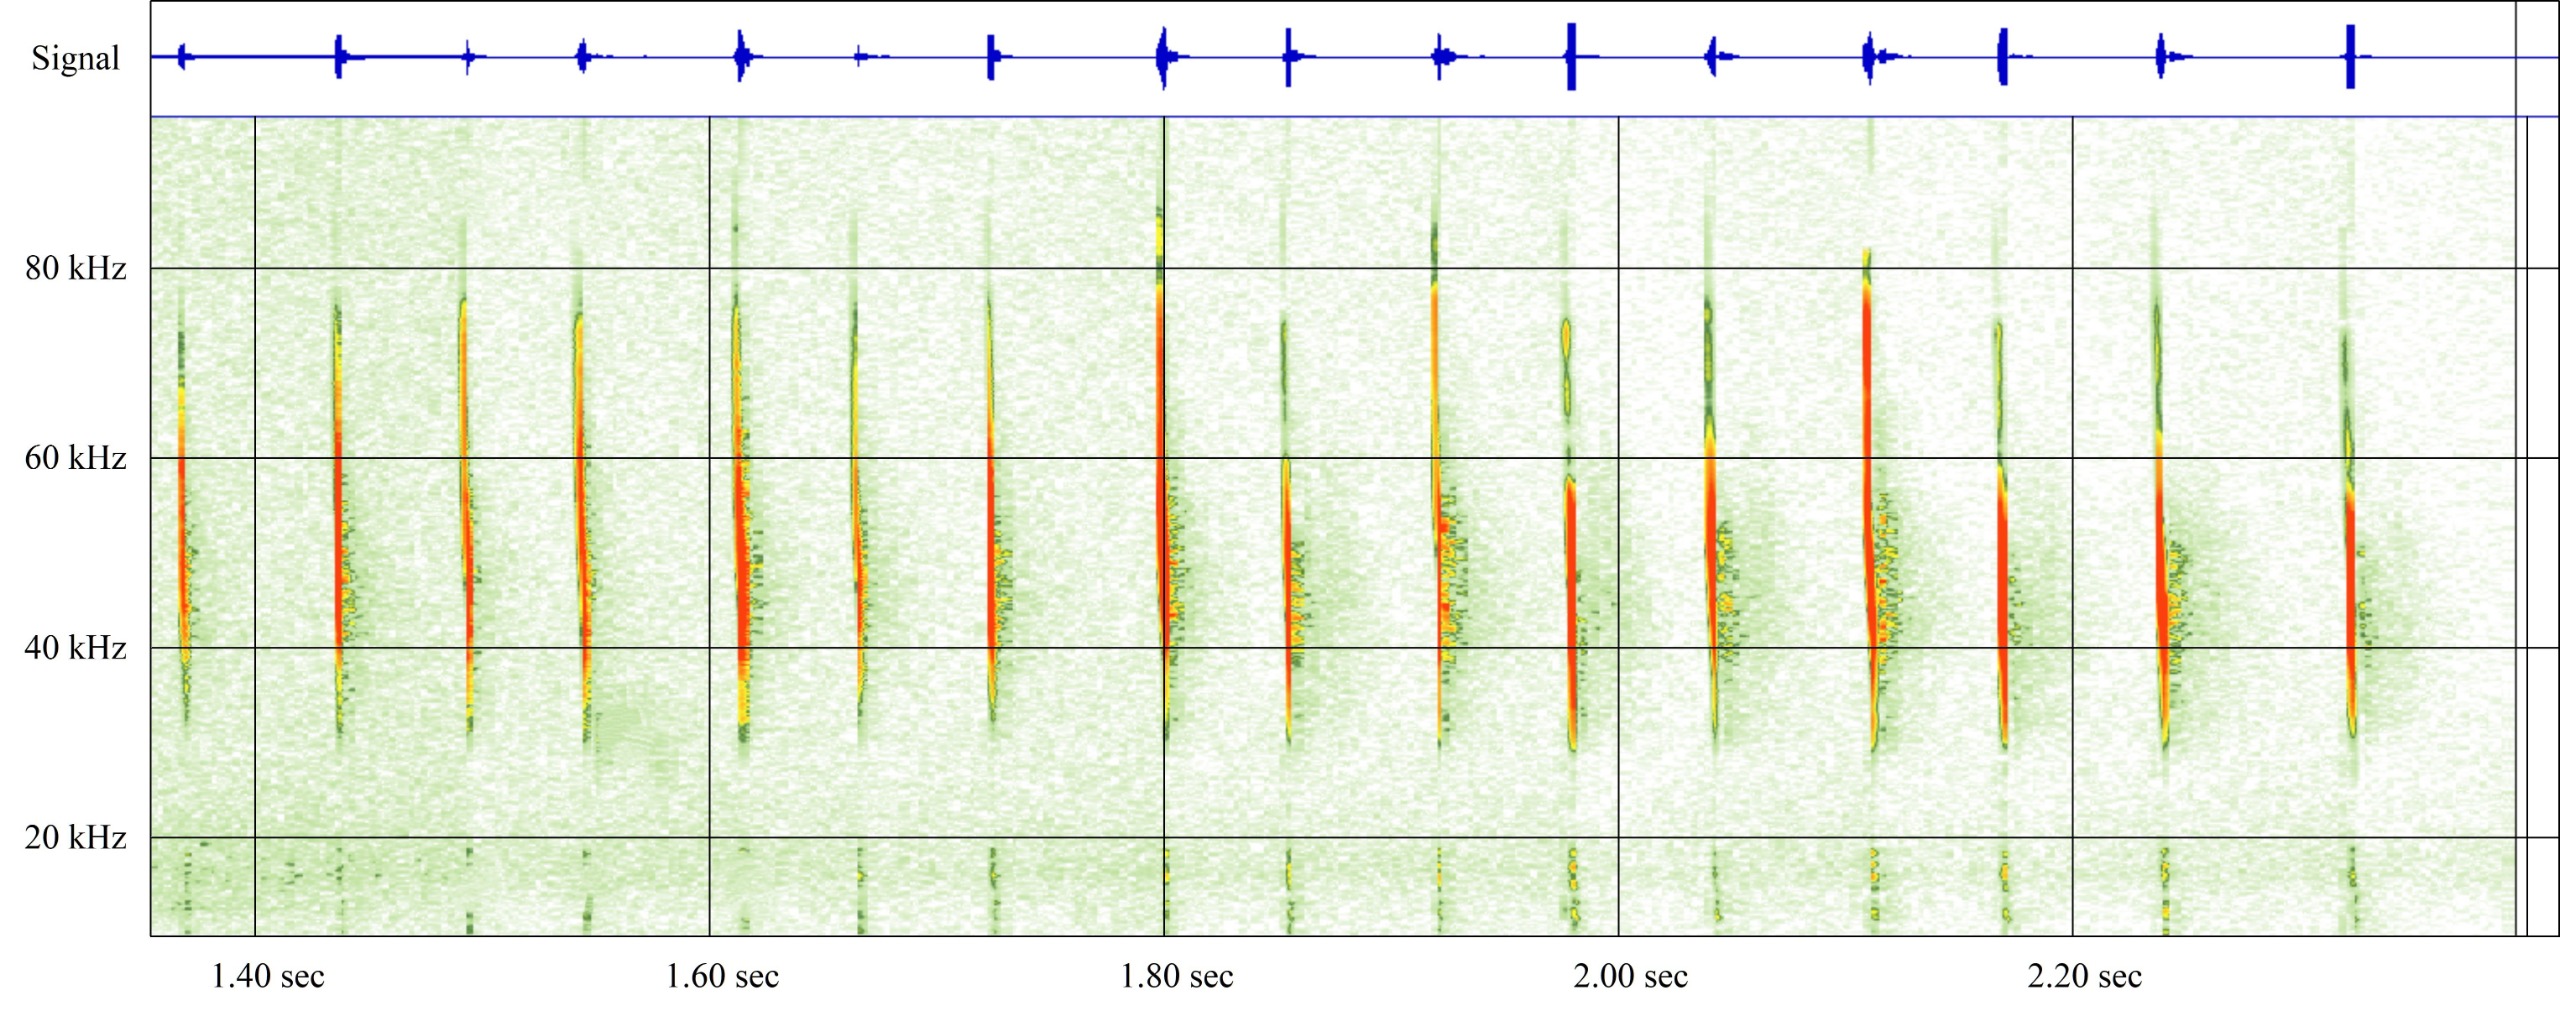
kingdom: Animalia
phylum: Chordata
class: Mammalia
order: Chiroptera
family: Vespertilionidae
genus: Myotis
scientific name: Myotis daubentonii
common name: Vandflagermus
